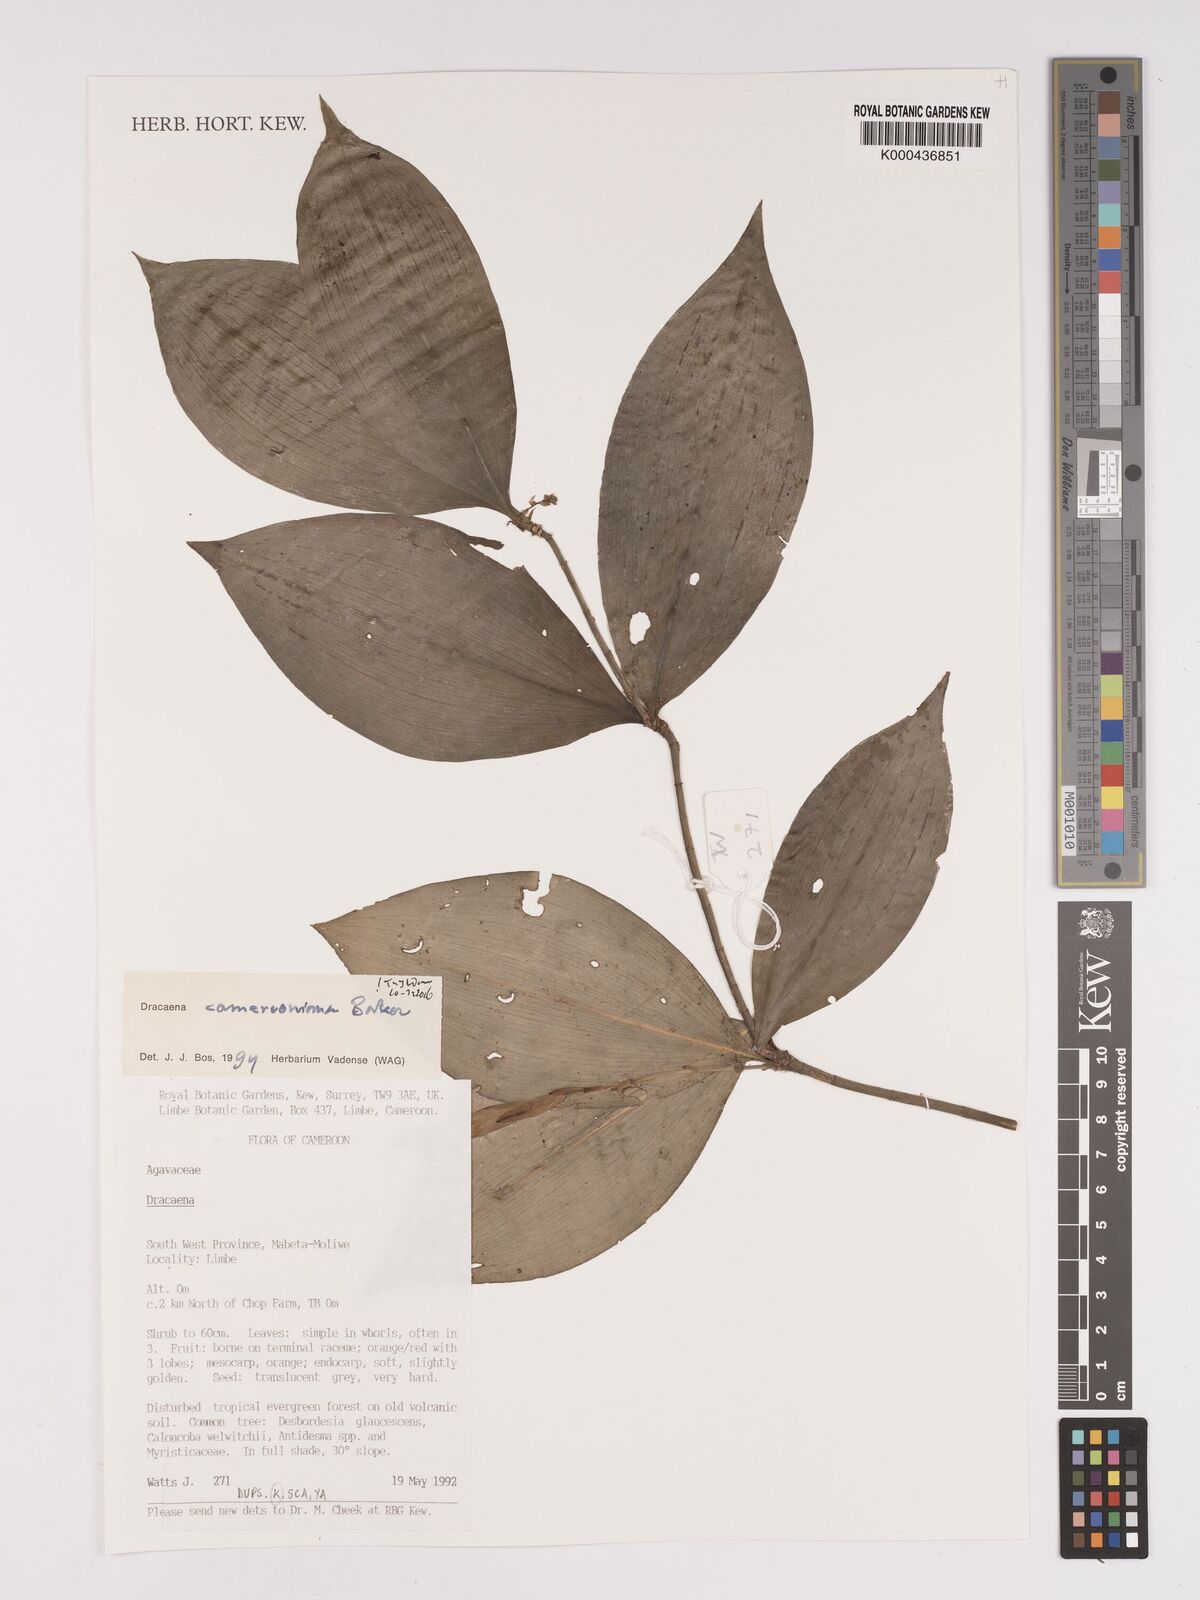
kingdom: Plantae
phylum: Tracheophyta
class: Liliopsida
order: Asparagales
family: Asparagaceae
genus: Dracaena
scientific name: Dracaena camerooniana
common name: Dragon tree
